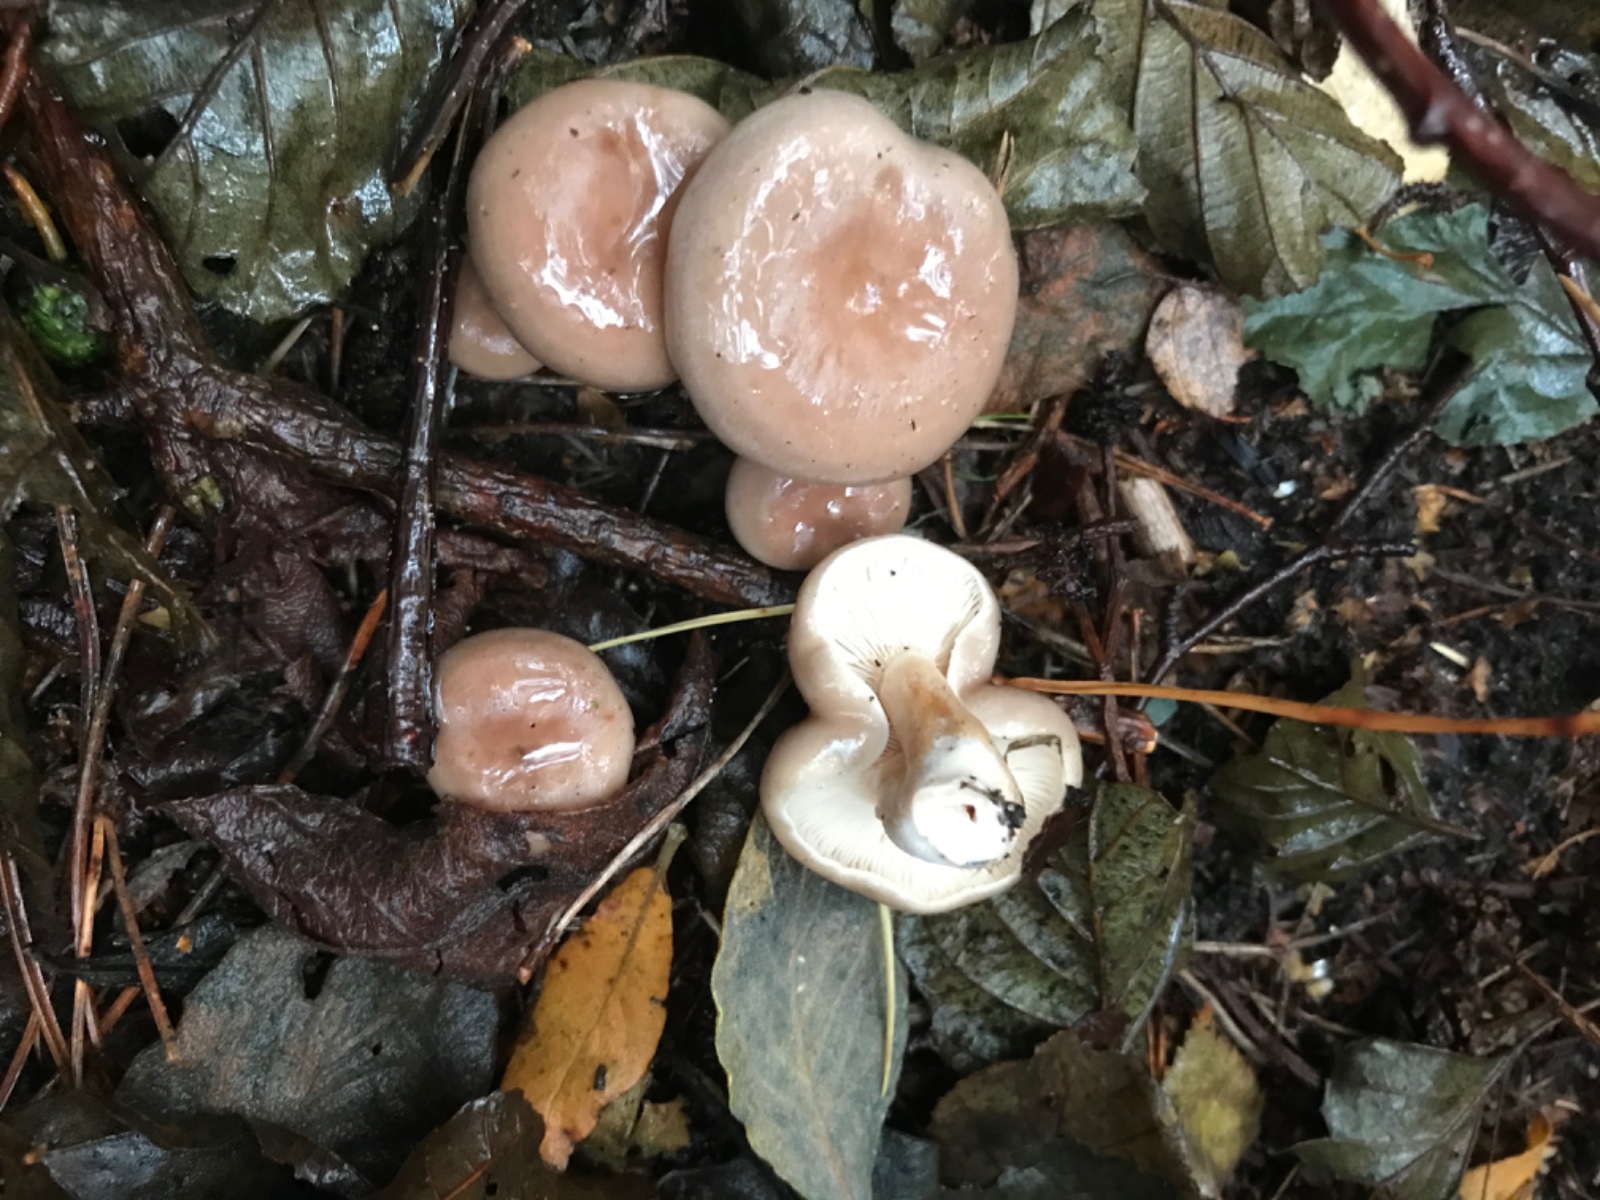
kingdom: Fungi
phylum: Basidiomycota
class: Agaricomycetes
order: Russulales
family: Russulaceae
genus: Lactarius
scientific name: Lactarius vietus
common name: violetgrå mælkehat
